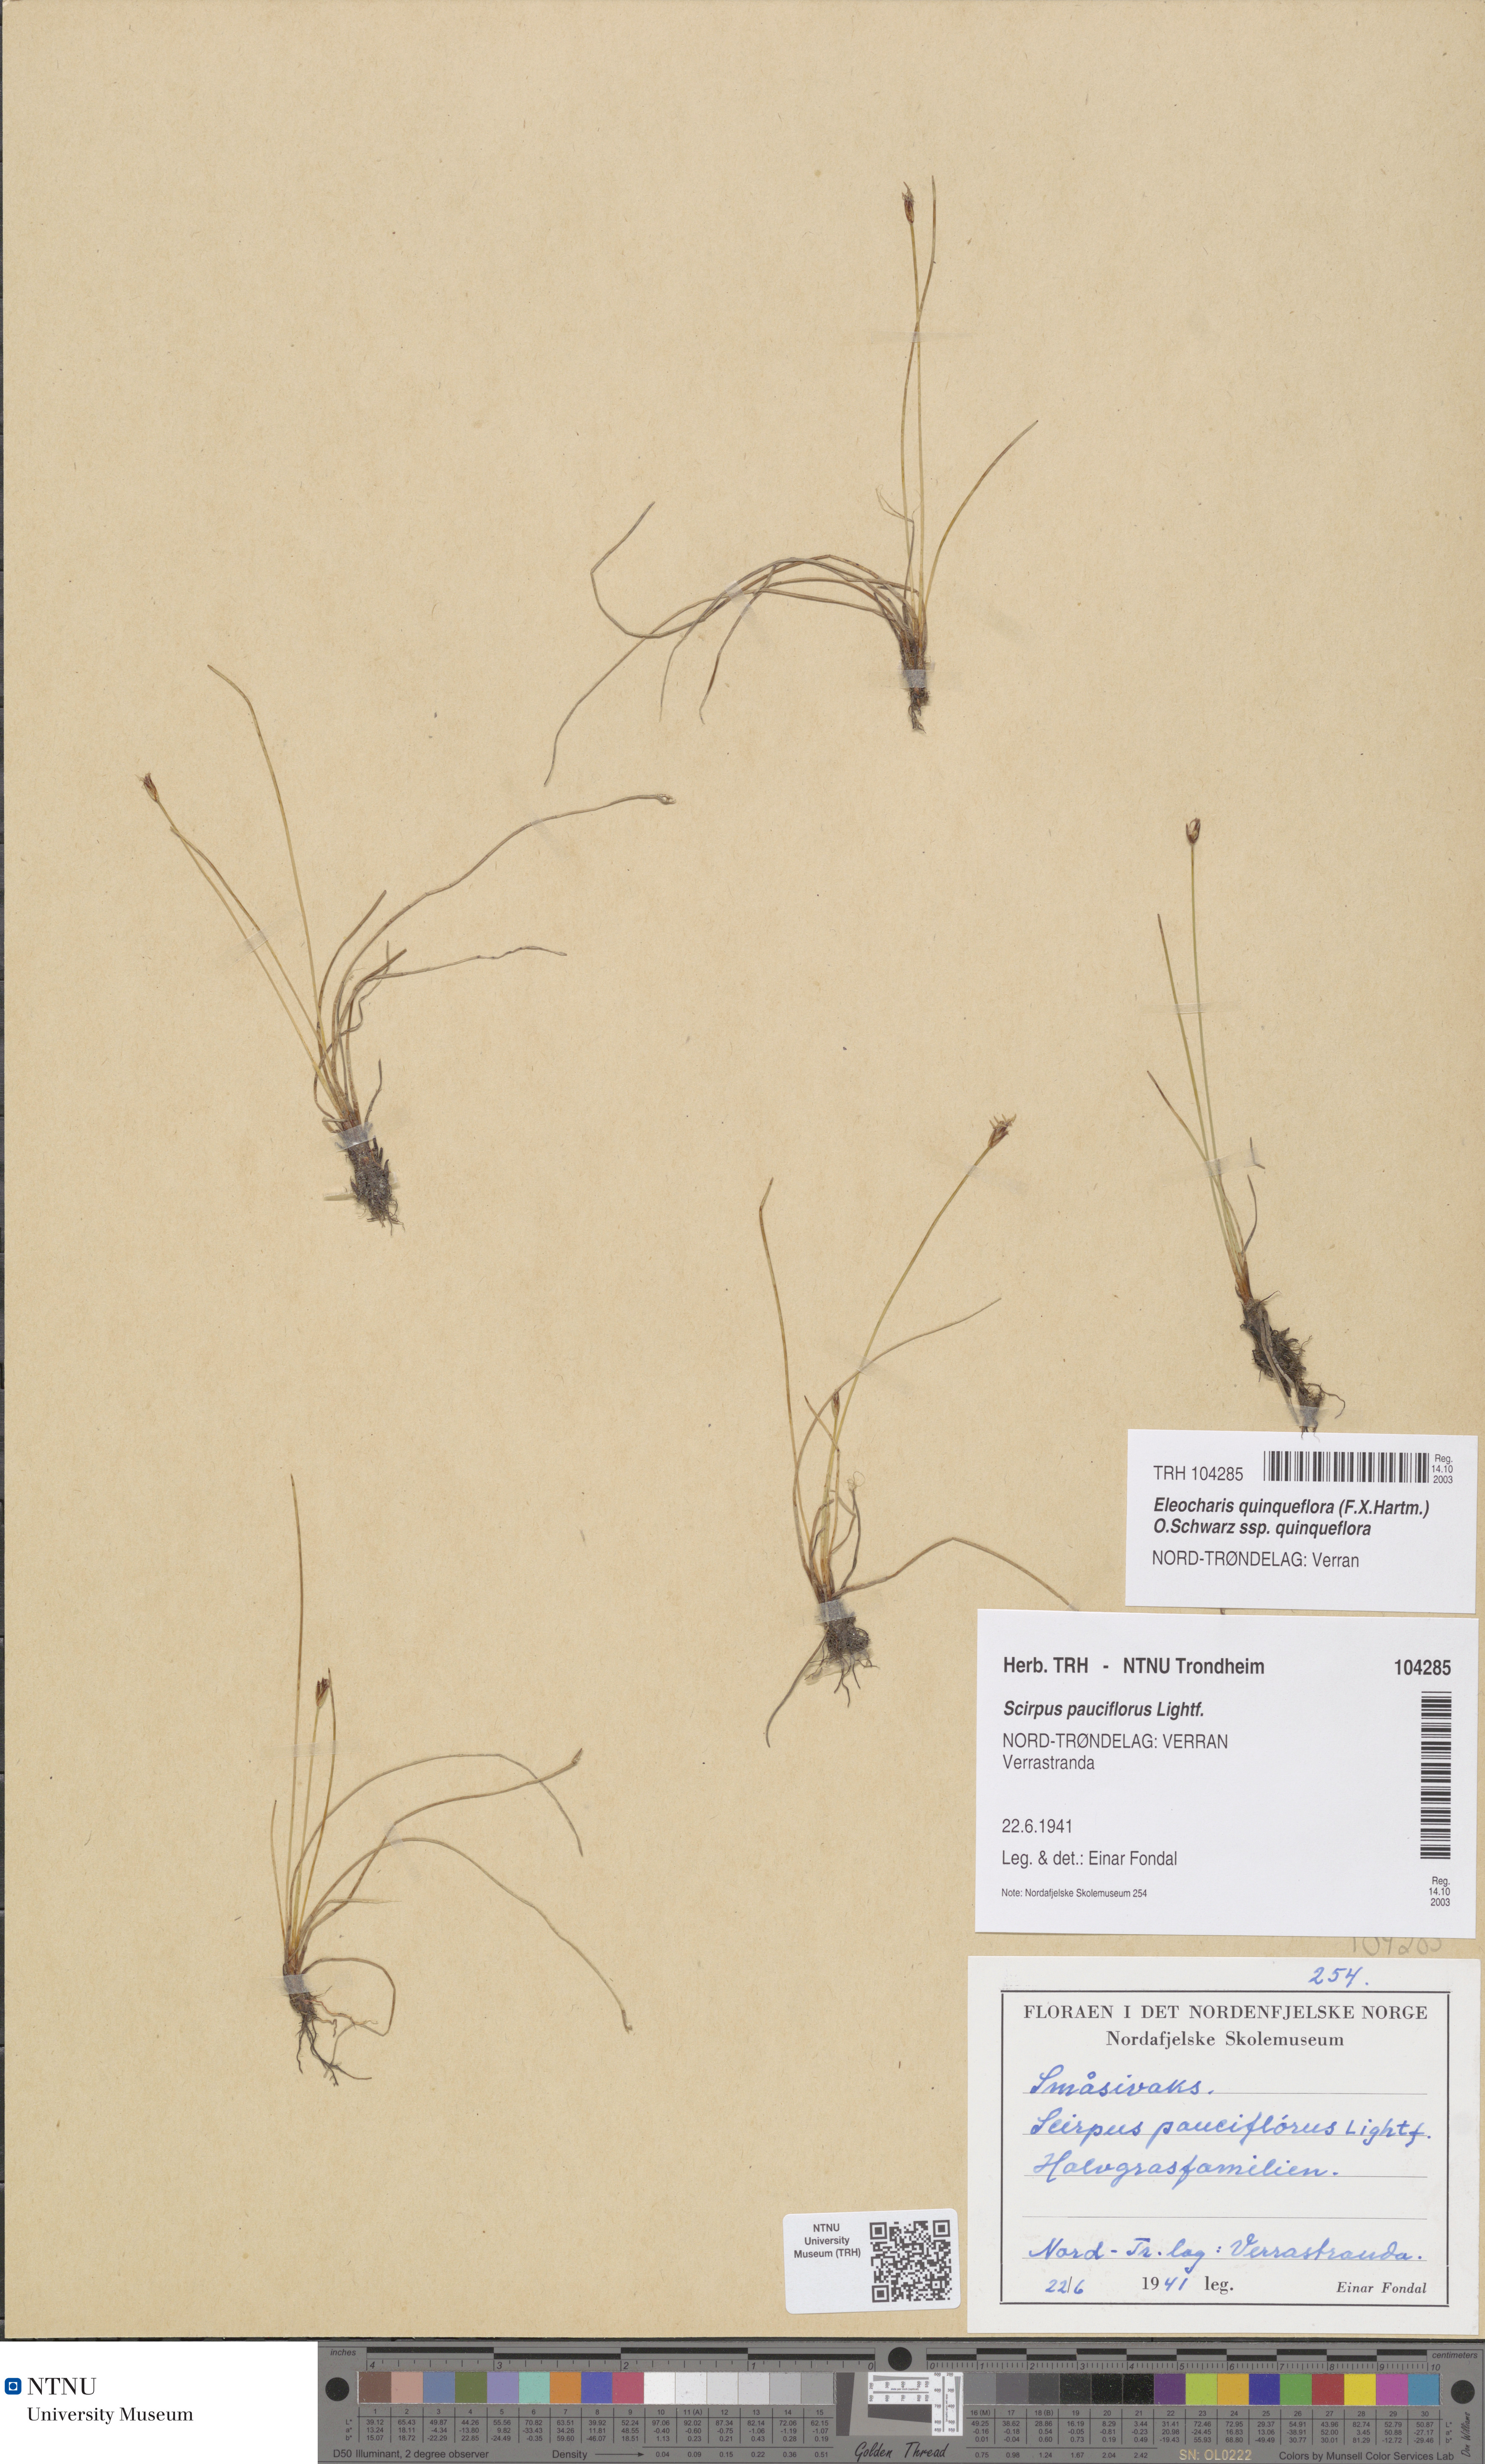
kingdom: Plantae
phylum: Tracheophyta
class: Liliopsida
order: Poales
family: Cyperaceae
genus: Eleocharis
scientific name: Eleocharis quinqueflora
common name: Few-flowered spike-rush
